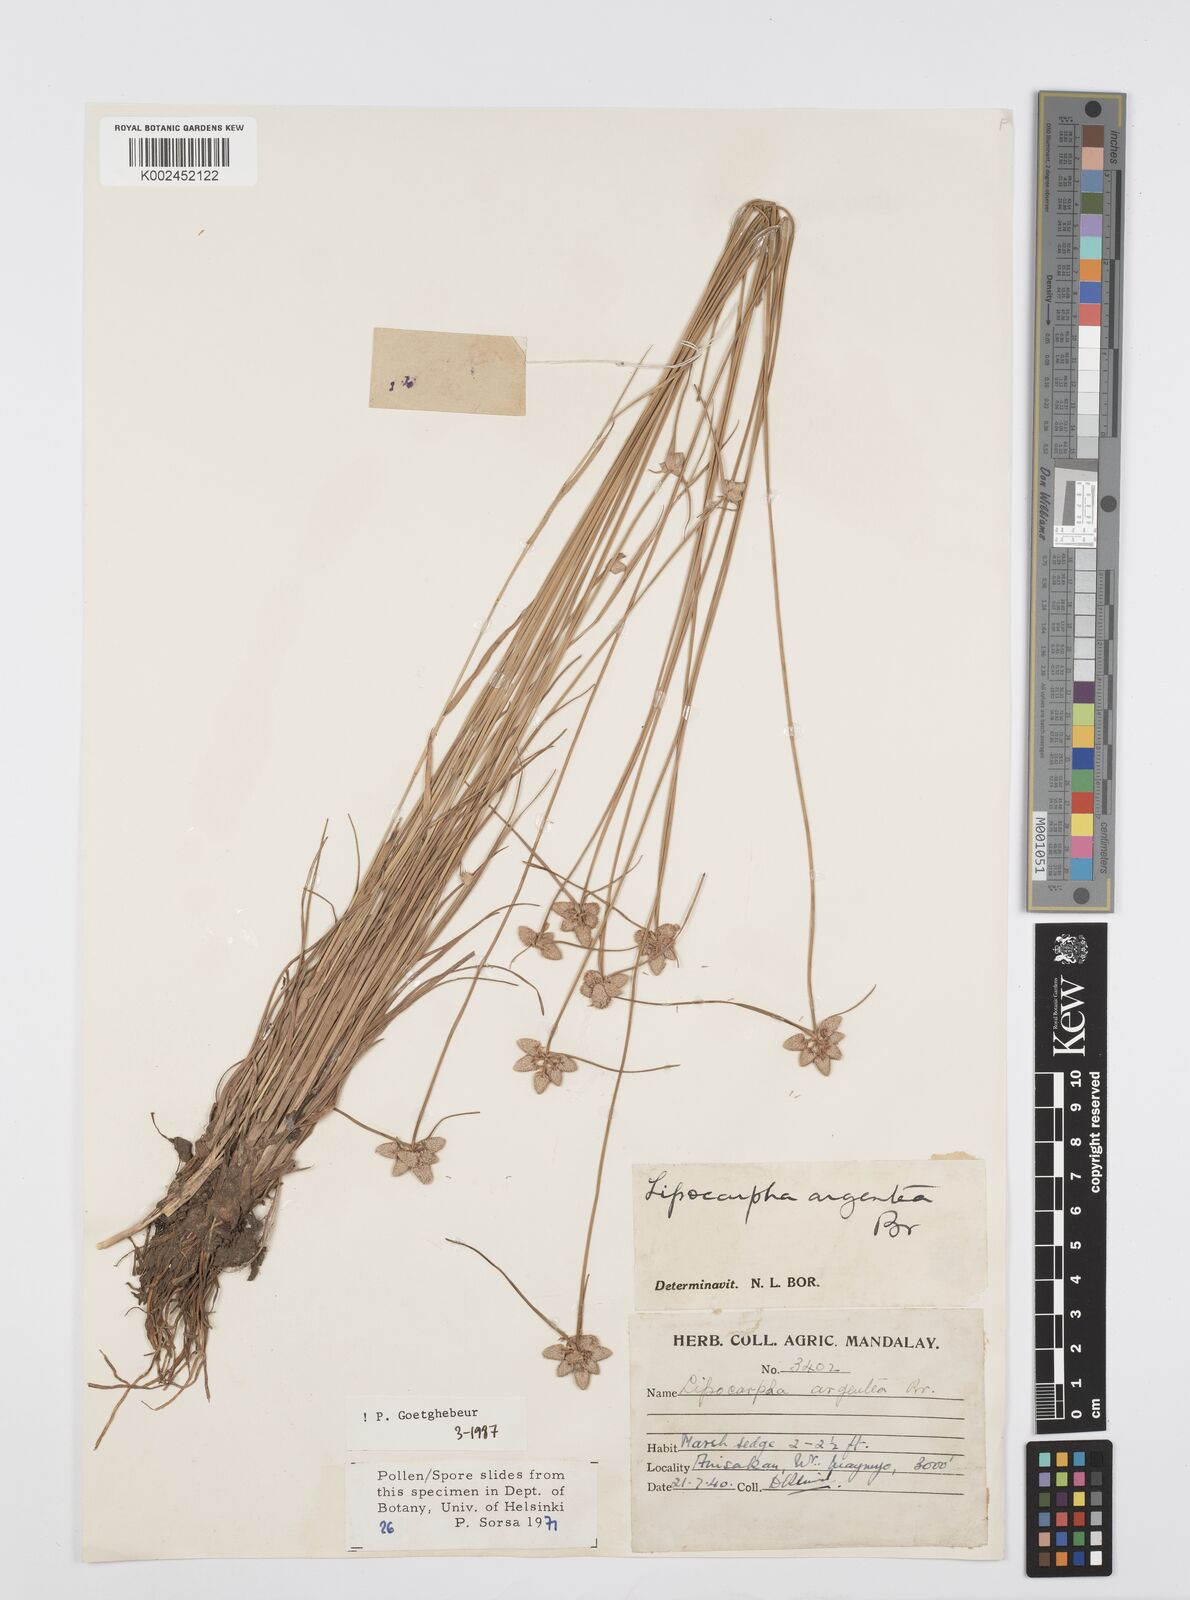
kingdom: Plantae
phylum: Tracheophyta
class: Liliopsida
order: Poales
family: Cyperaceae
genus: Cyperus
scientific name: Cyperus
